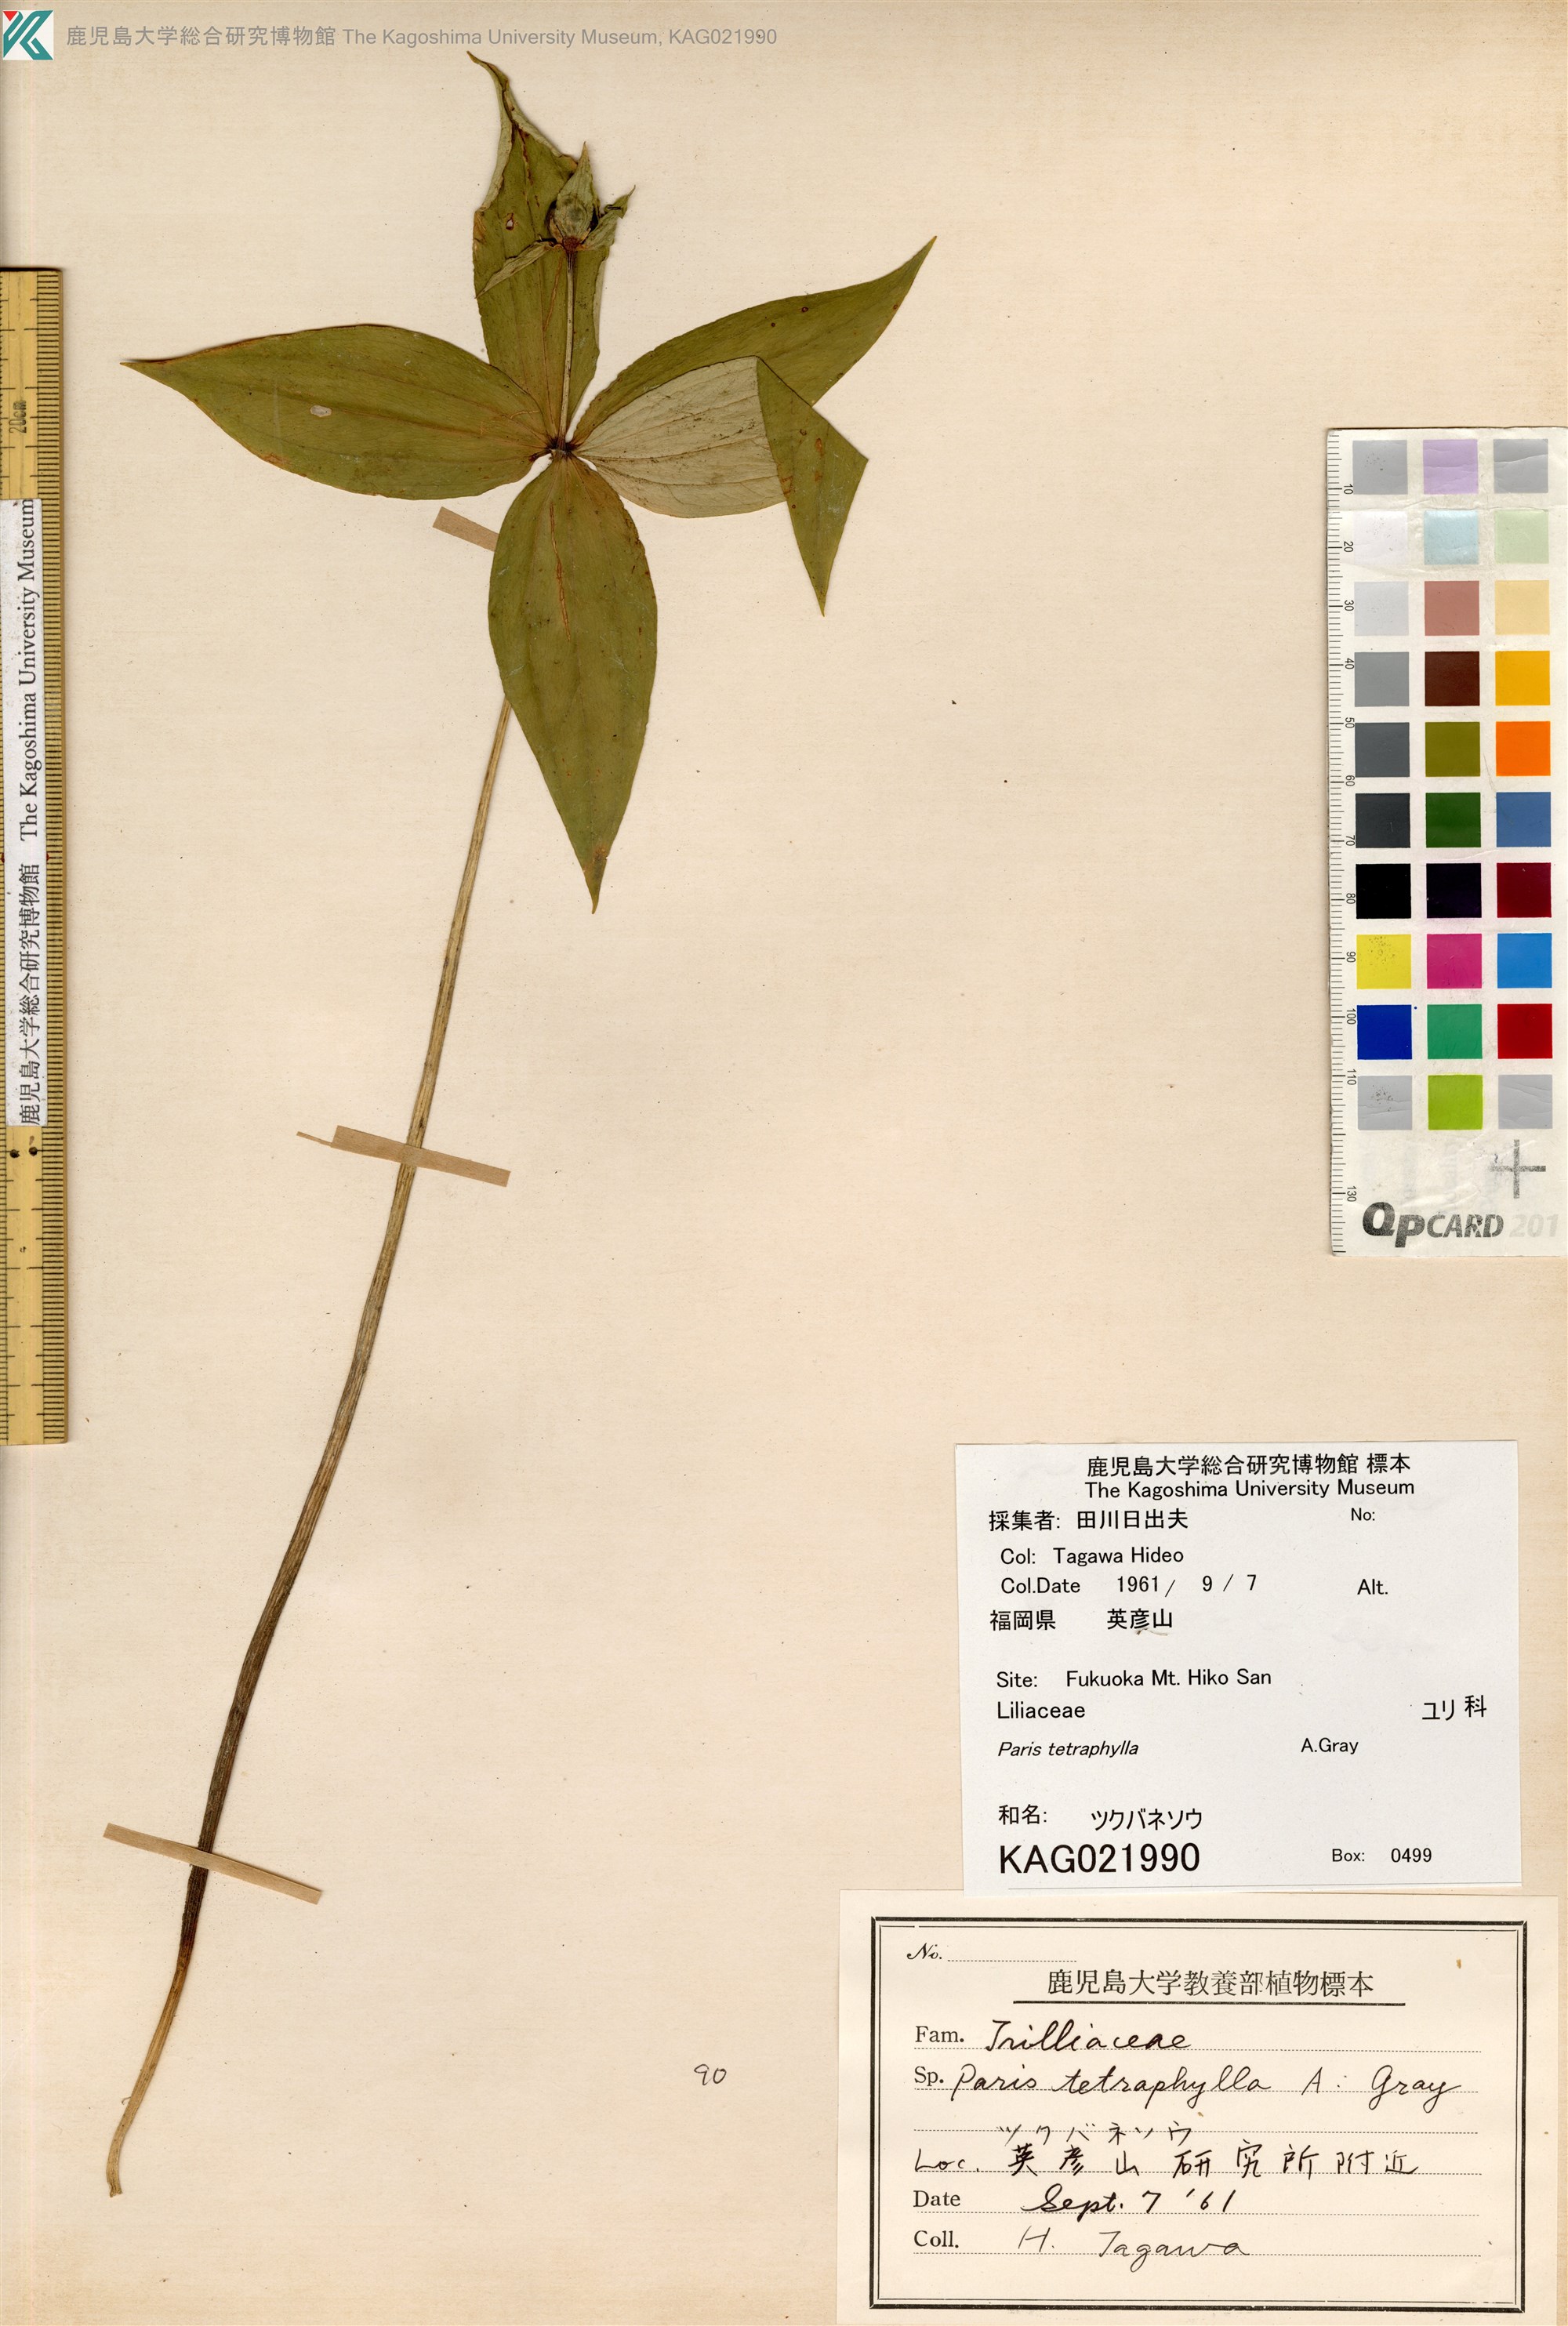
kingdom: Plantae
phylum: Tracheophyta
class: Liliopsida
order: Liliales
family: Melanthiaceae
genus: Paris
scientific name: Paris tetraphylla
